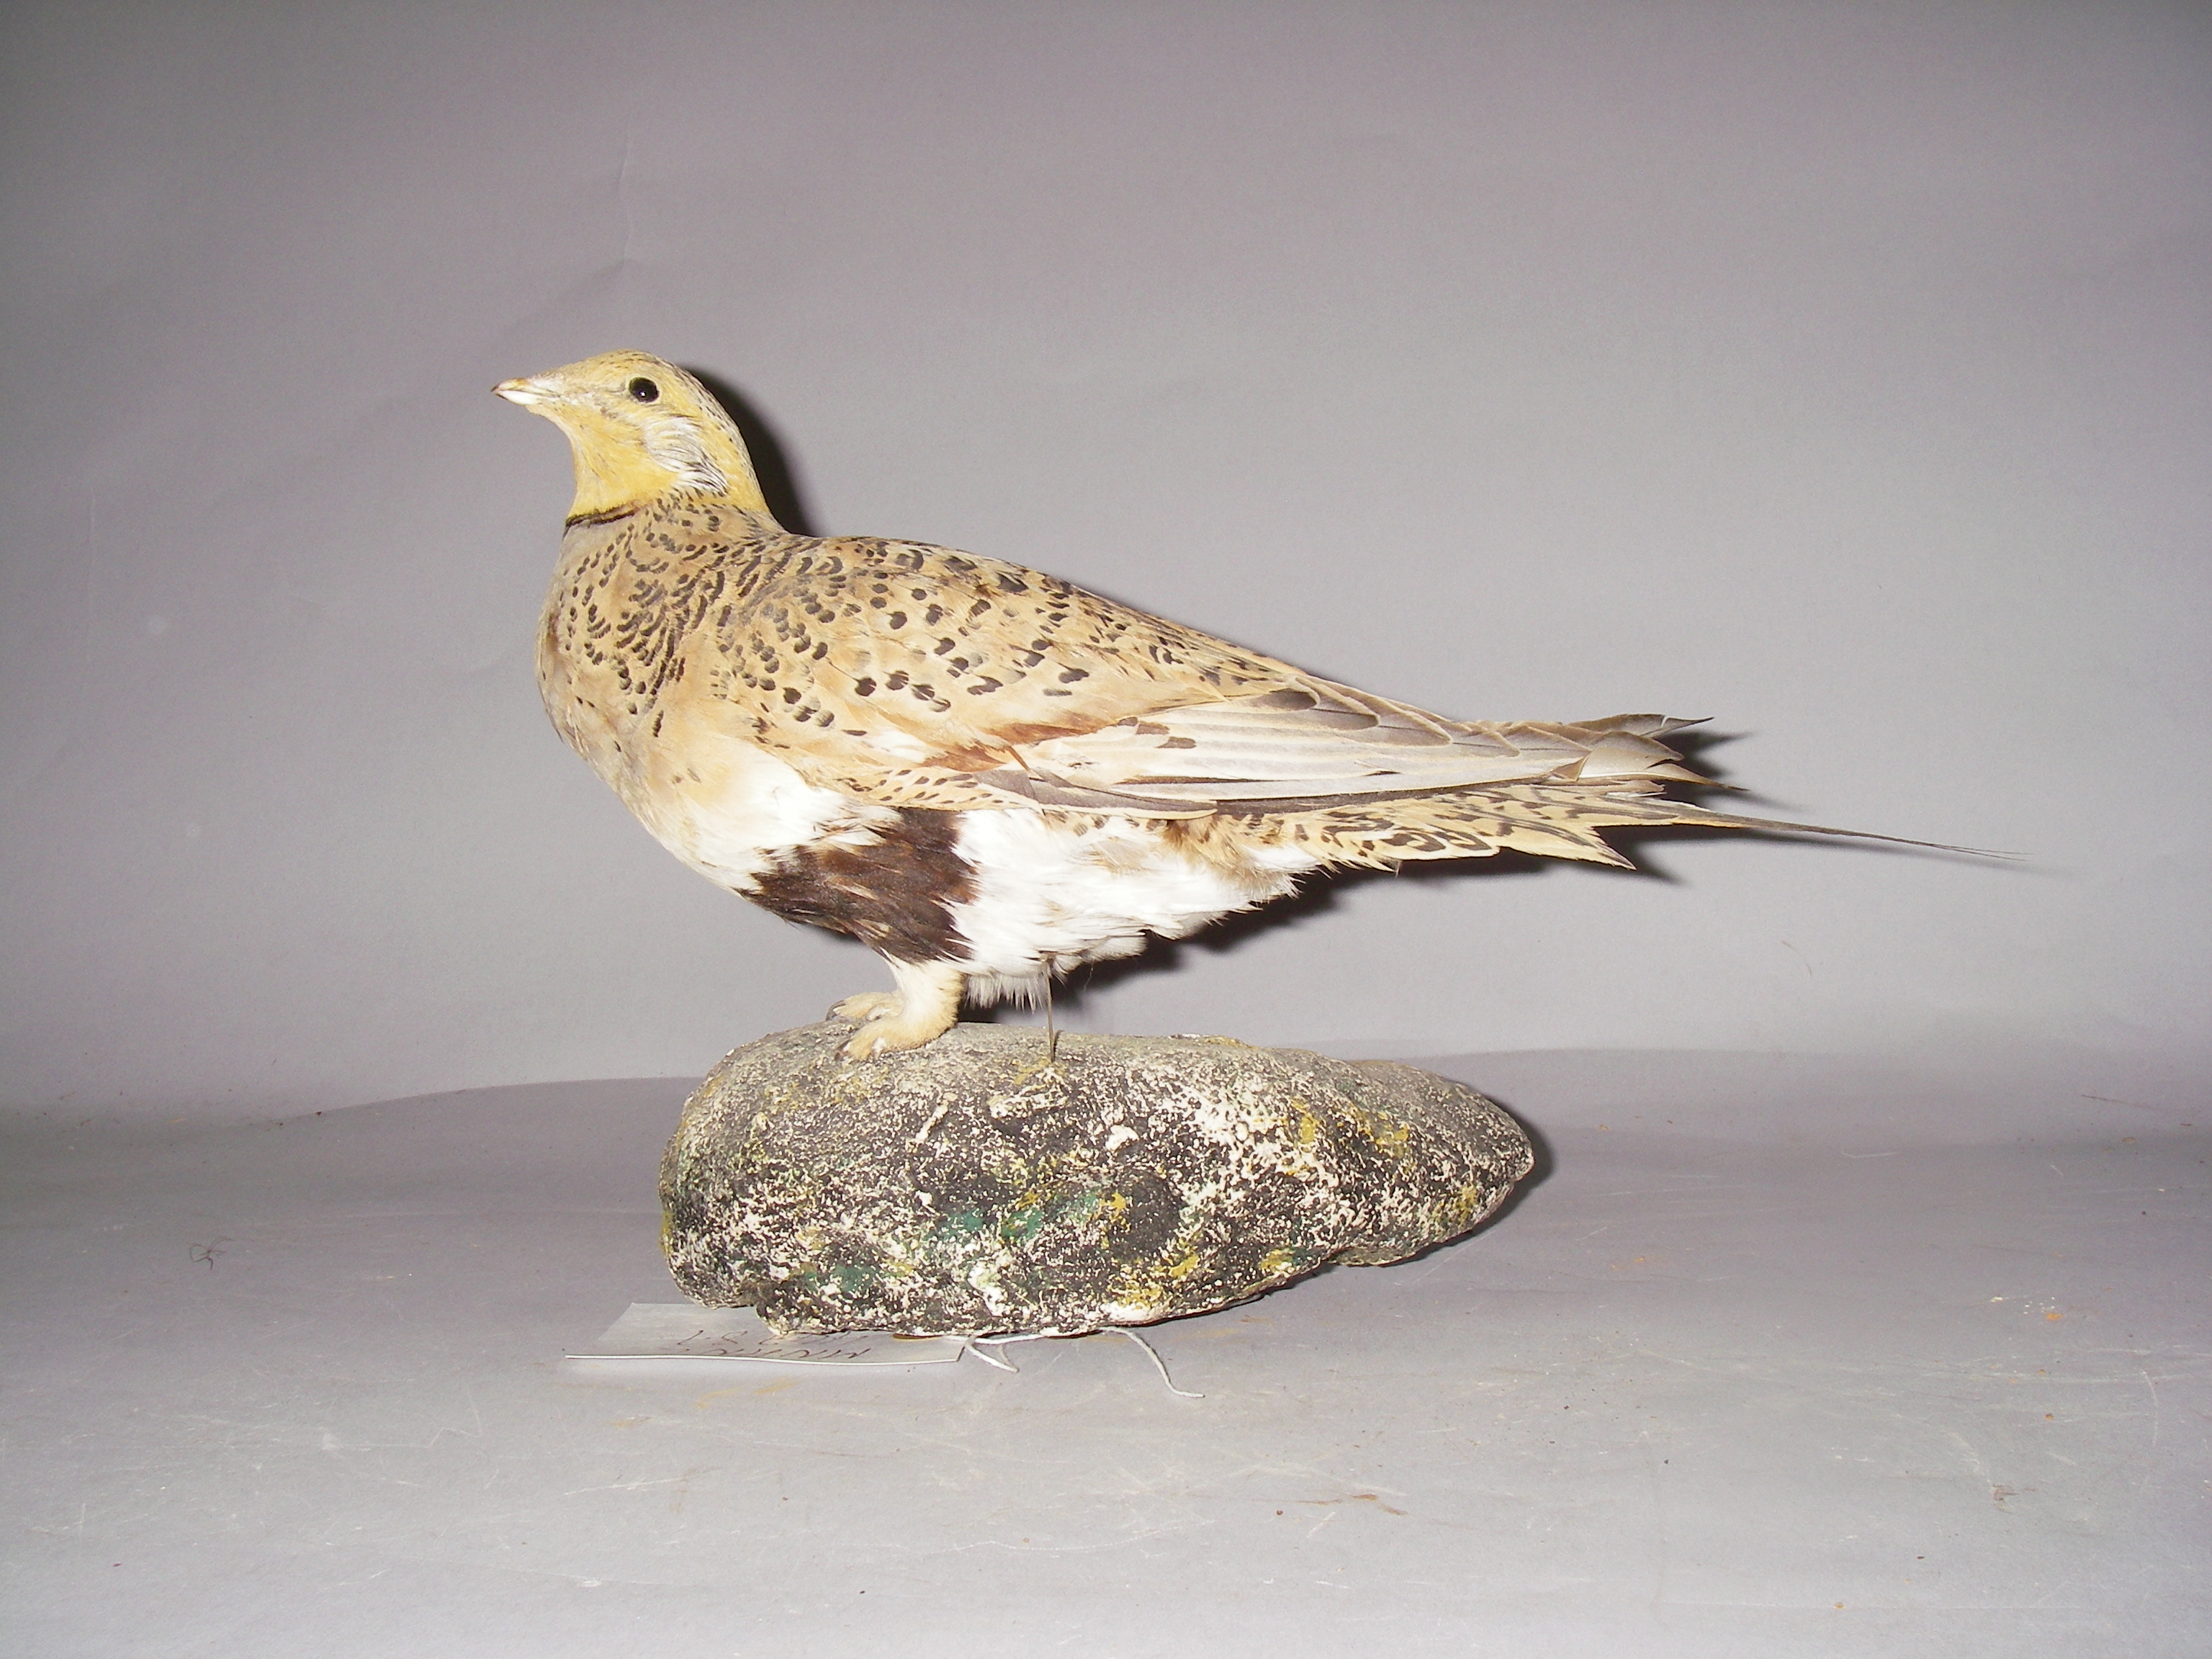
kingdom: Animalia
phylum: Chordata
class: Aves
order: Pteroclidiformes
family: Pteroclididae
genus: Syrrhaptes
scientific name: Syrrhaptes paradoxus
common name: Pallas's sandgrouse
